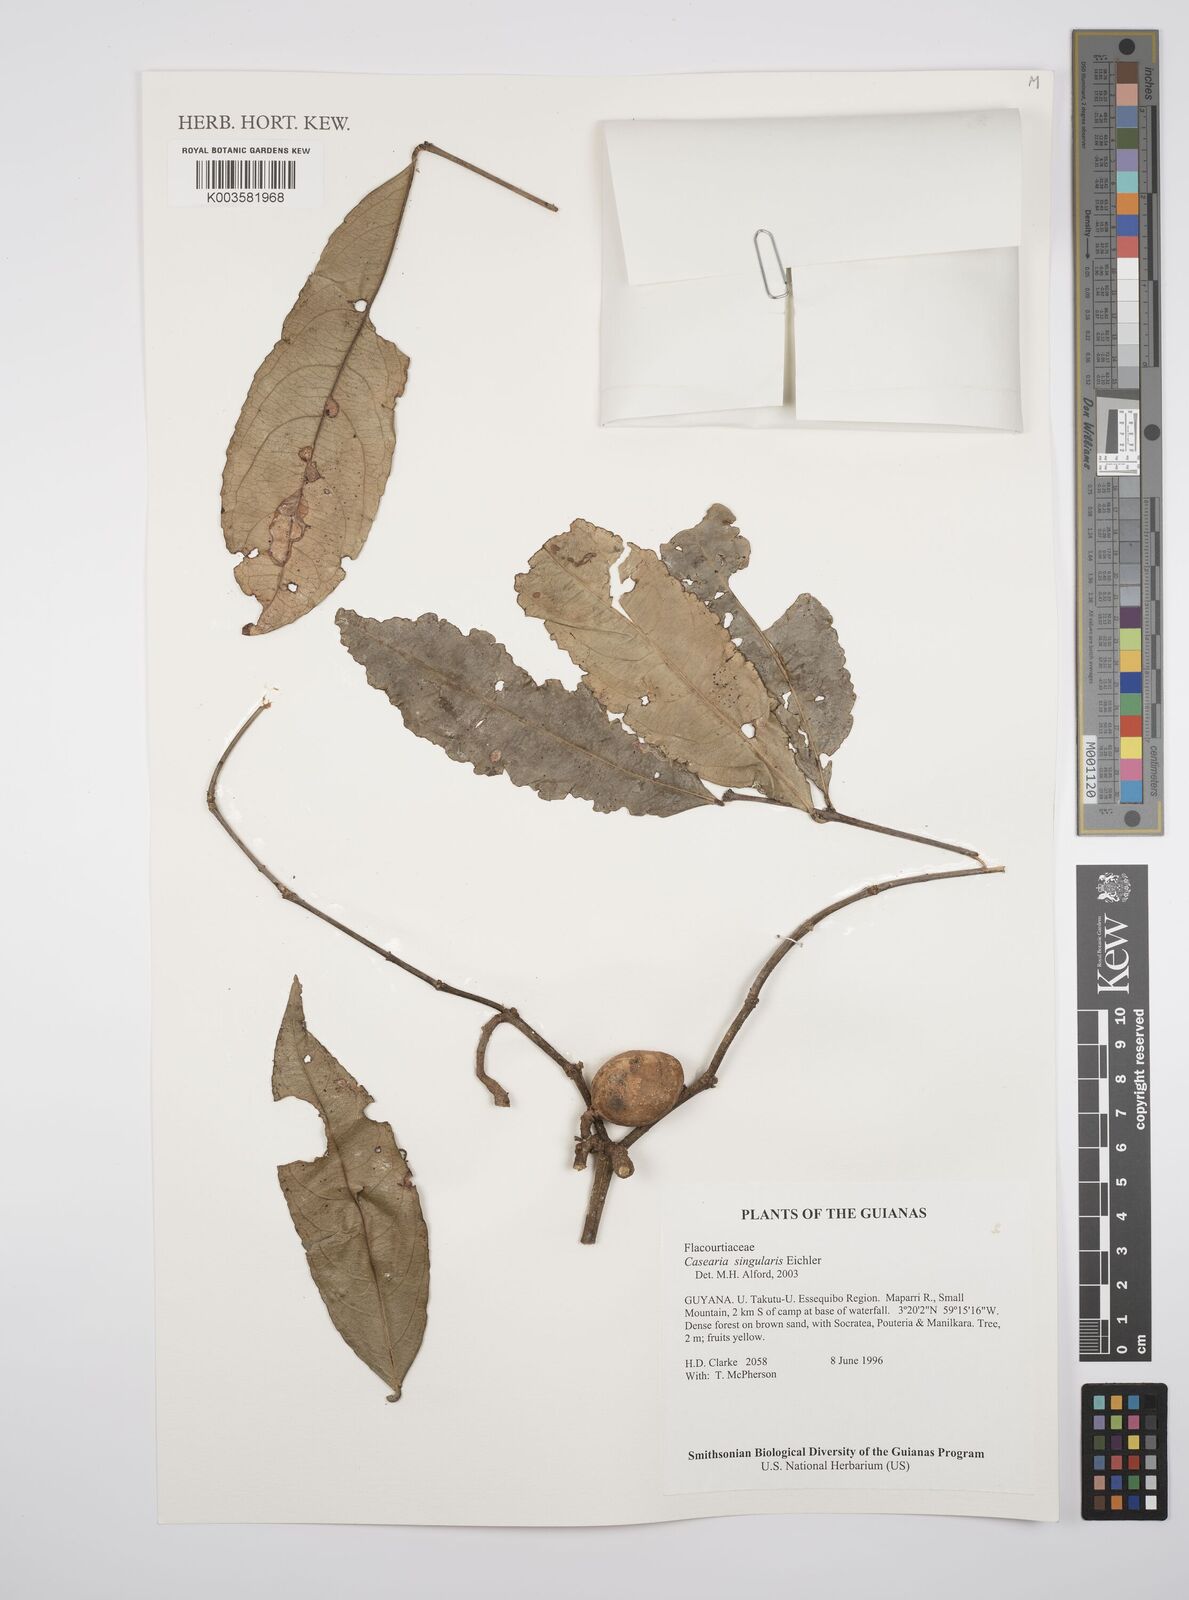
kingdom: Plantae
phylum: Tracheophyta
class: Magnoliopsida
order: Malpighiales
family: Salicaceae
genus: Casearia
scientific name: Casearia combaymensis
